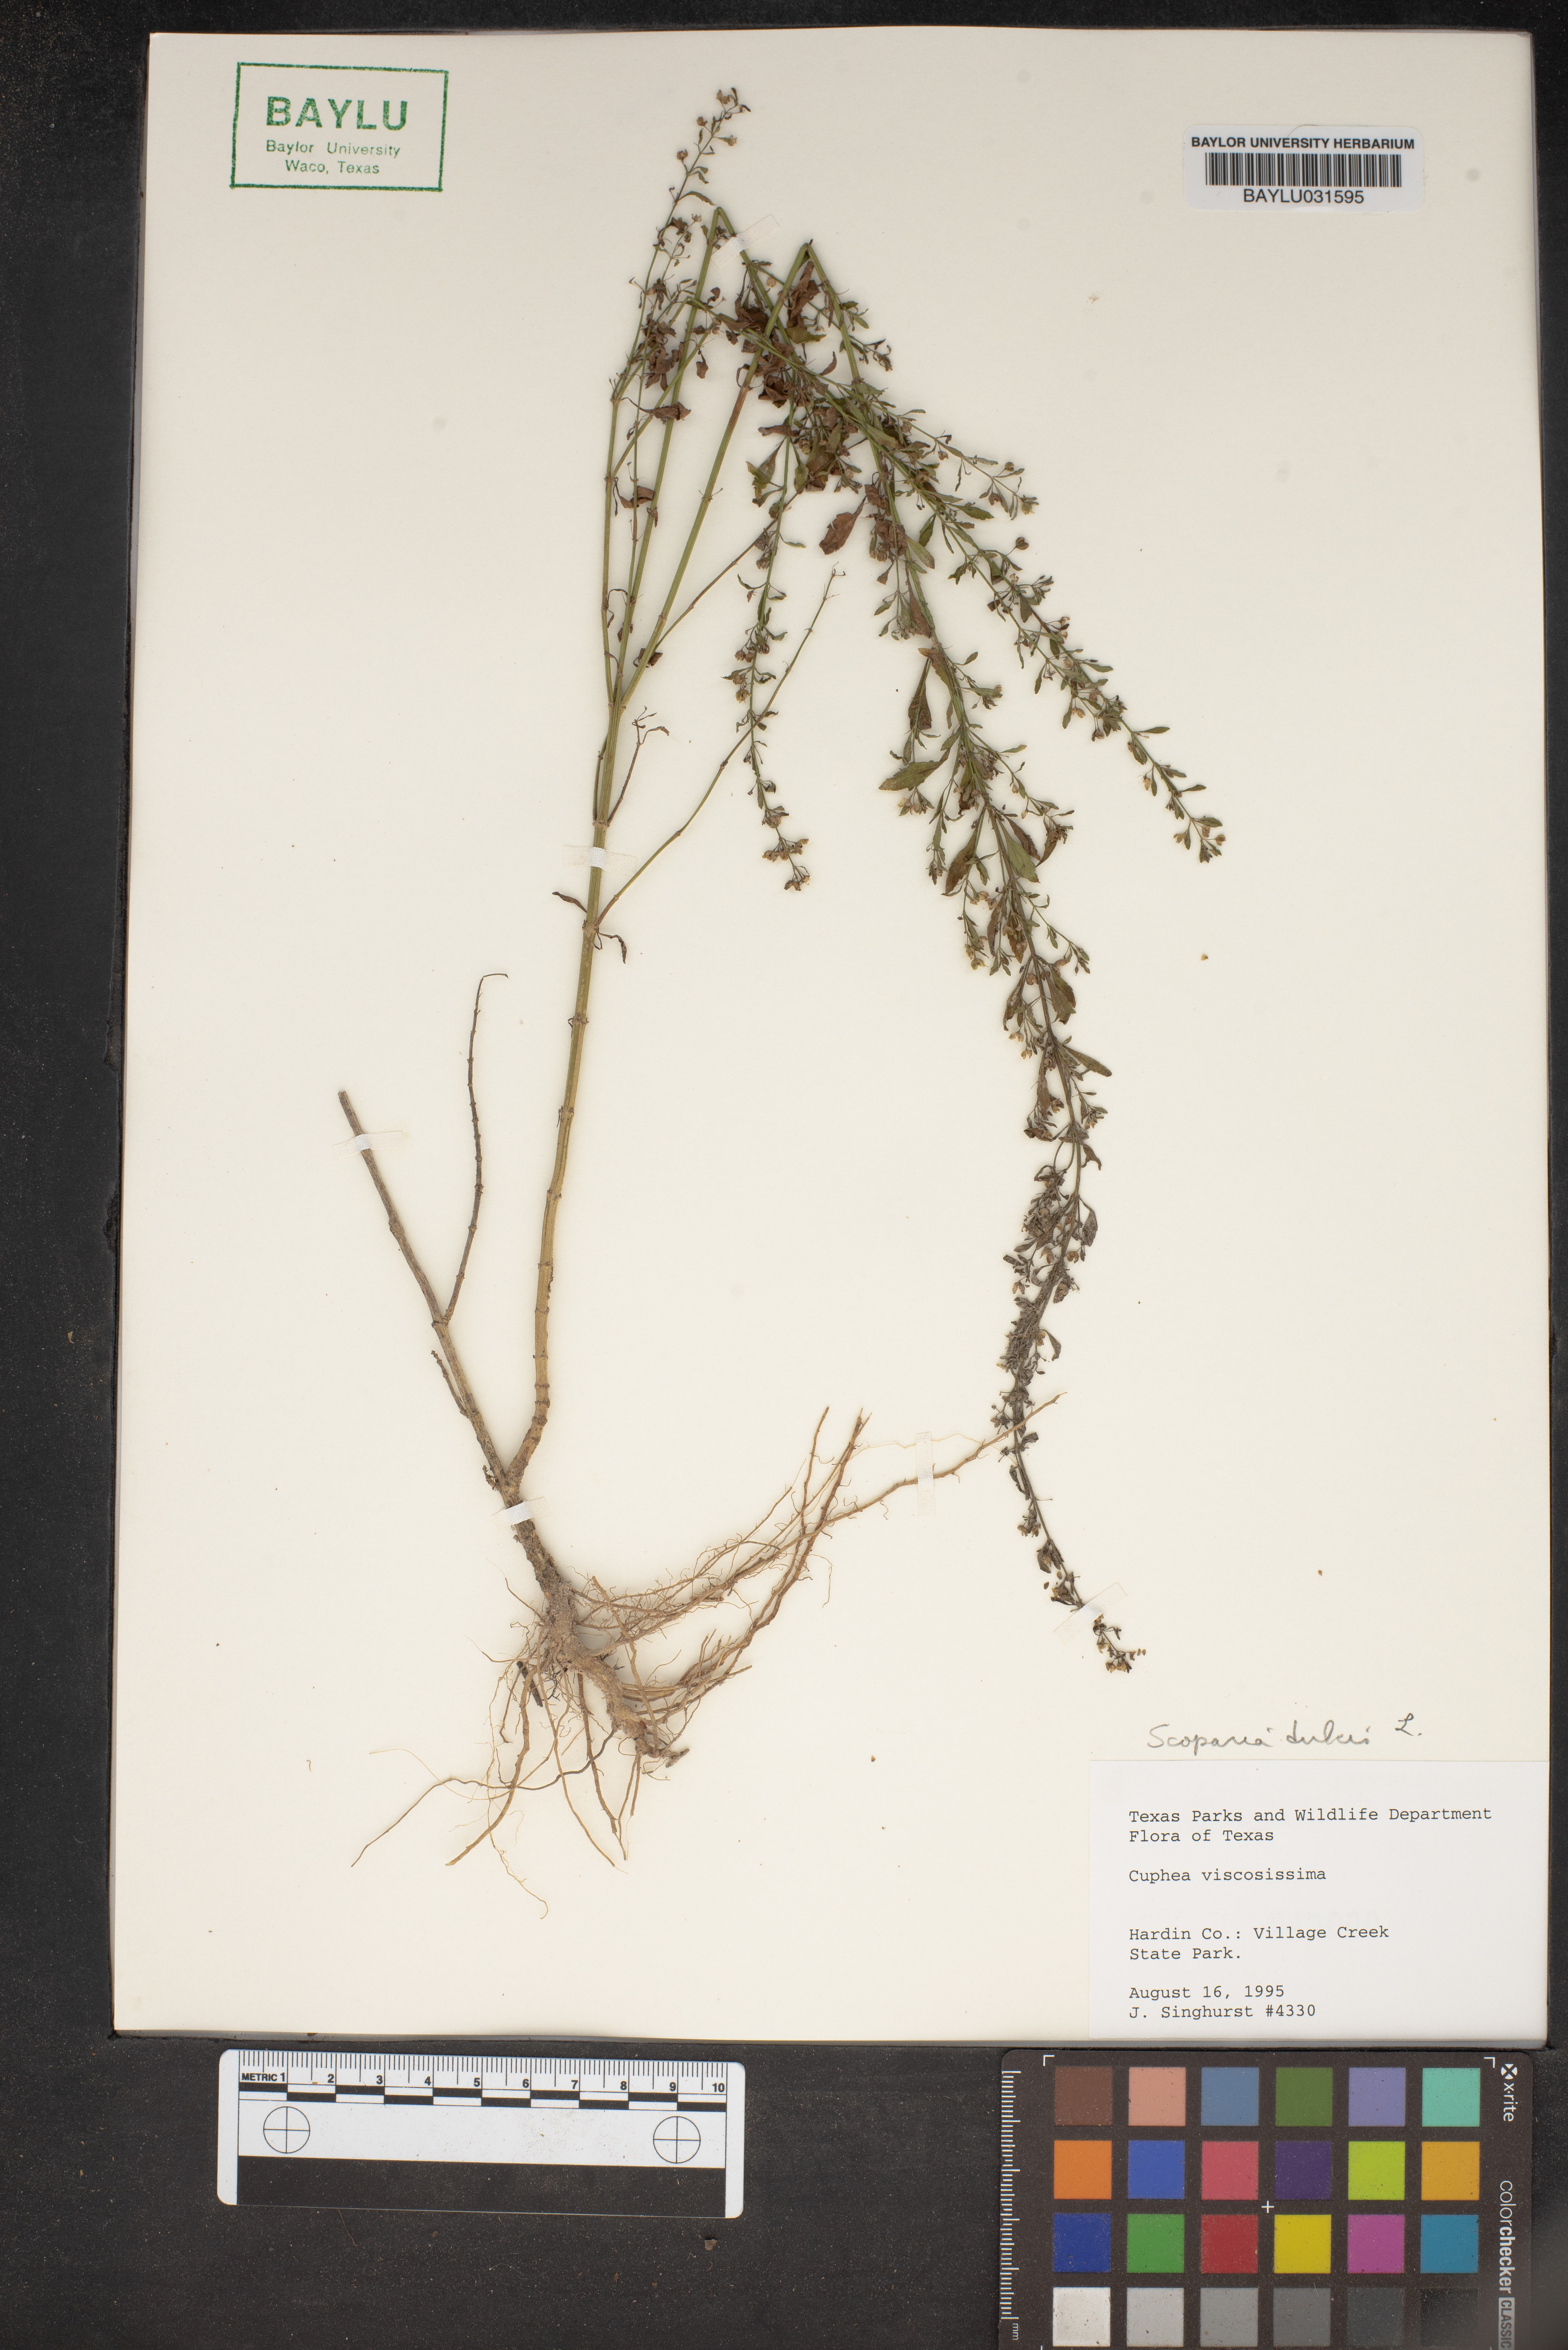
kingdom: Plantae
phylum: Tracheophyta
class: Magnoliopsida
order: Myrtales
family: Lythraceae
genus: Cuphea
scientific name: Cuphea viscosissima
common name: Clammy cuphea
